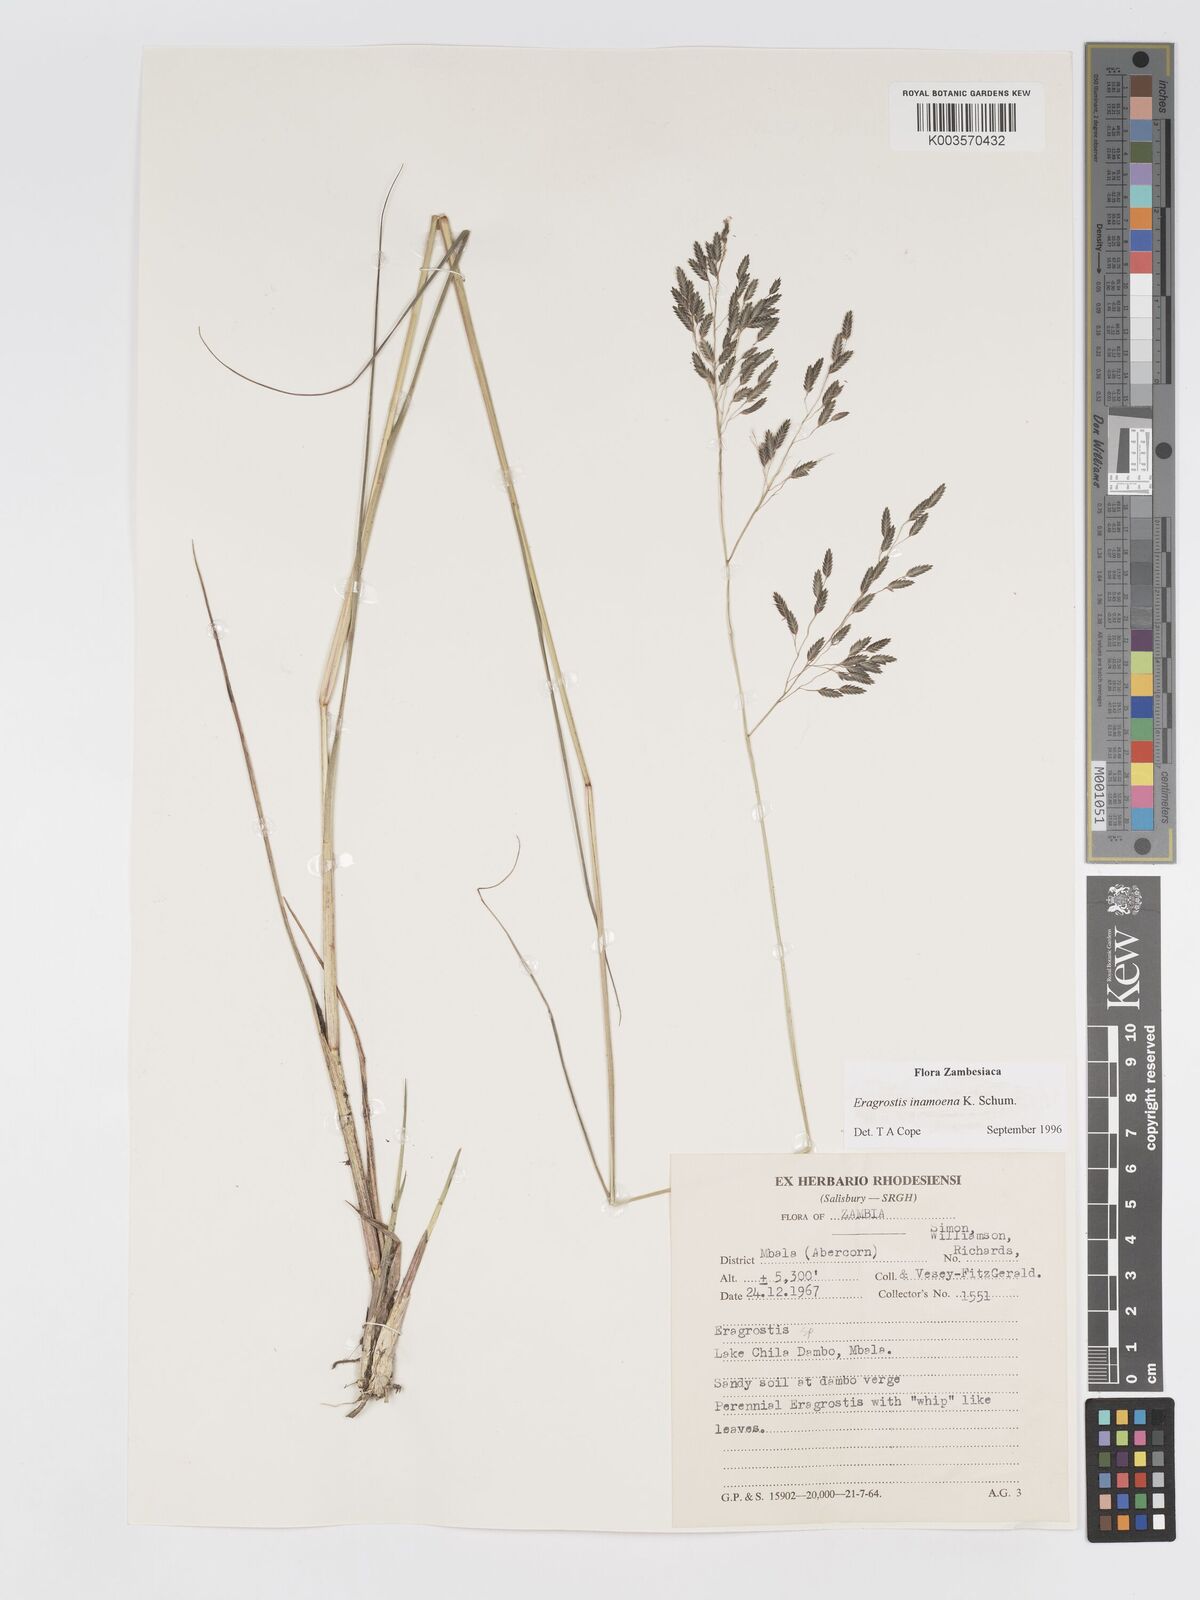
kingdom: Plantae
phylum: Tracheophyta
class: Liliopsida
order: Poales
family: Poaceae
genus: Eragrostis
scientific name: Eragrostis inamoena
